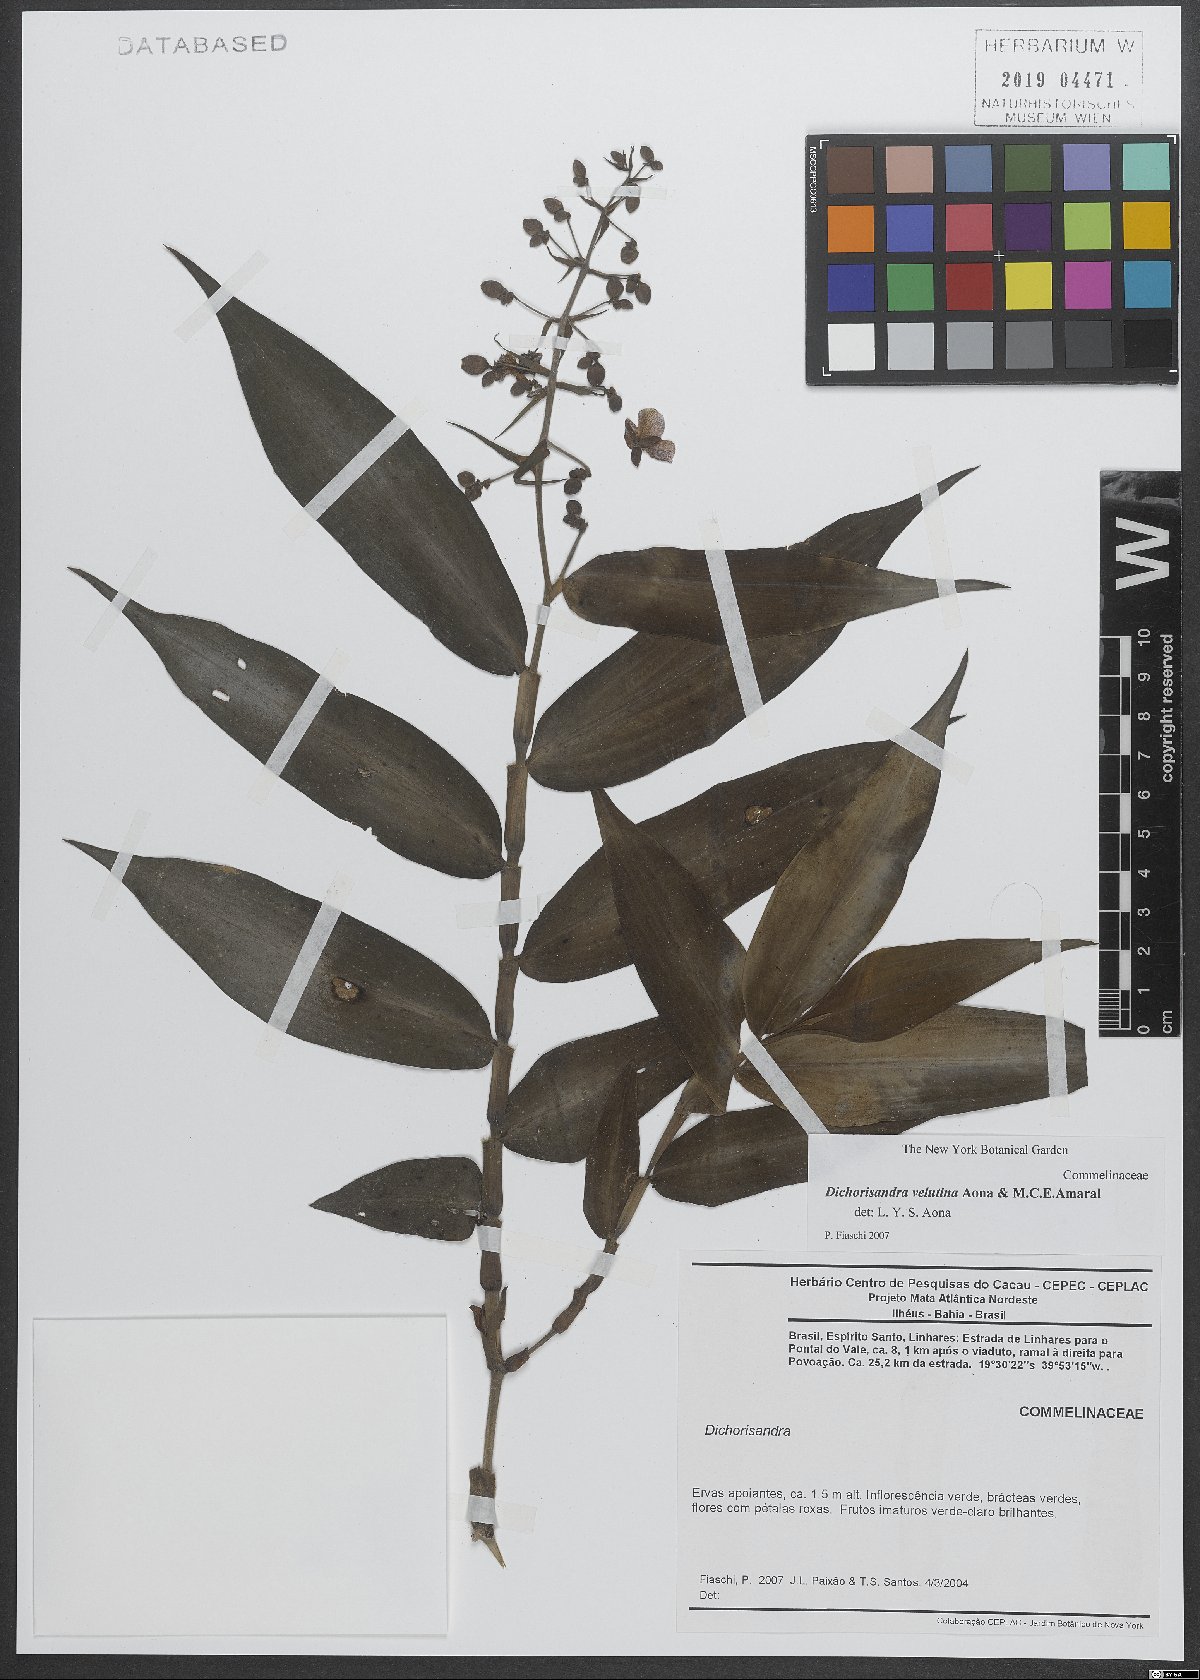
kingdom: Plantae
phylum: Tracheophyta
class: Liliopsida
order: Commelinales
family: Commelinaceae
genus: Dichorisandra
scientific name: Dichorisandra velutina
